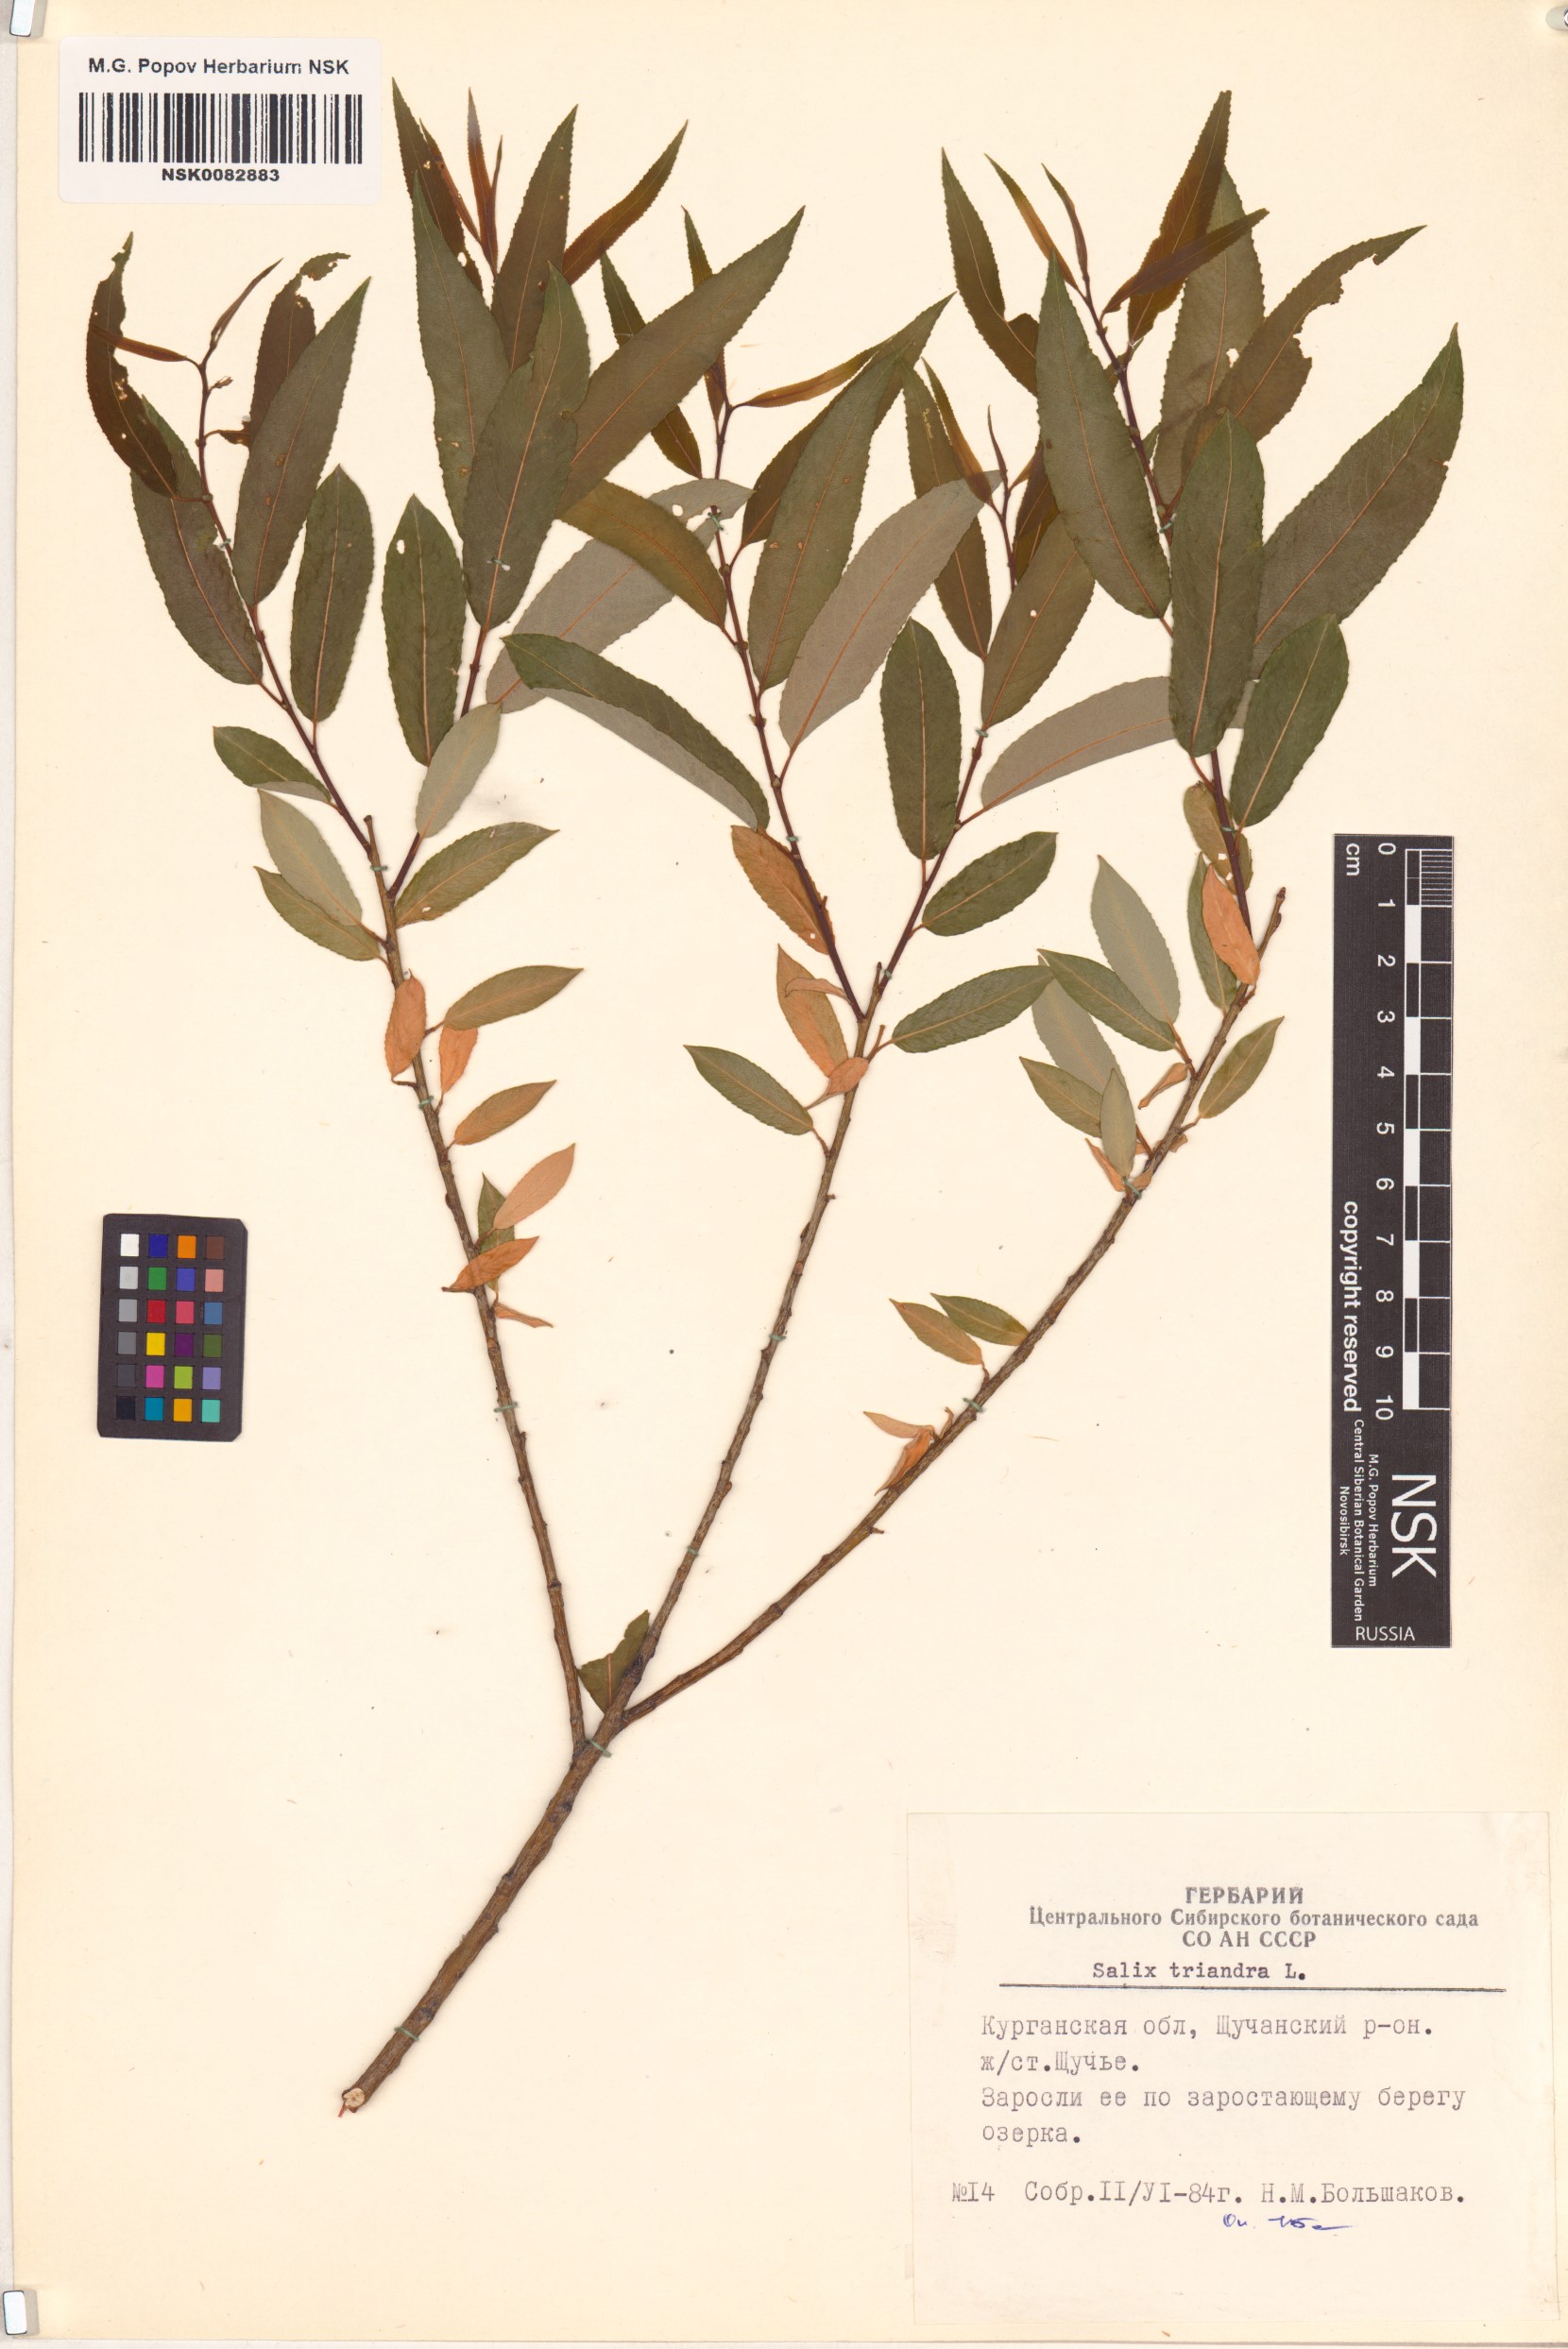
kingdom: Plantae
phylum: Tracheophyta
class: Magnoliopsida
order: Malpighiales
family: Salicaceae
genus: Salix
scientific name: Salix triandra
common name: Almond willow
